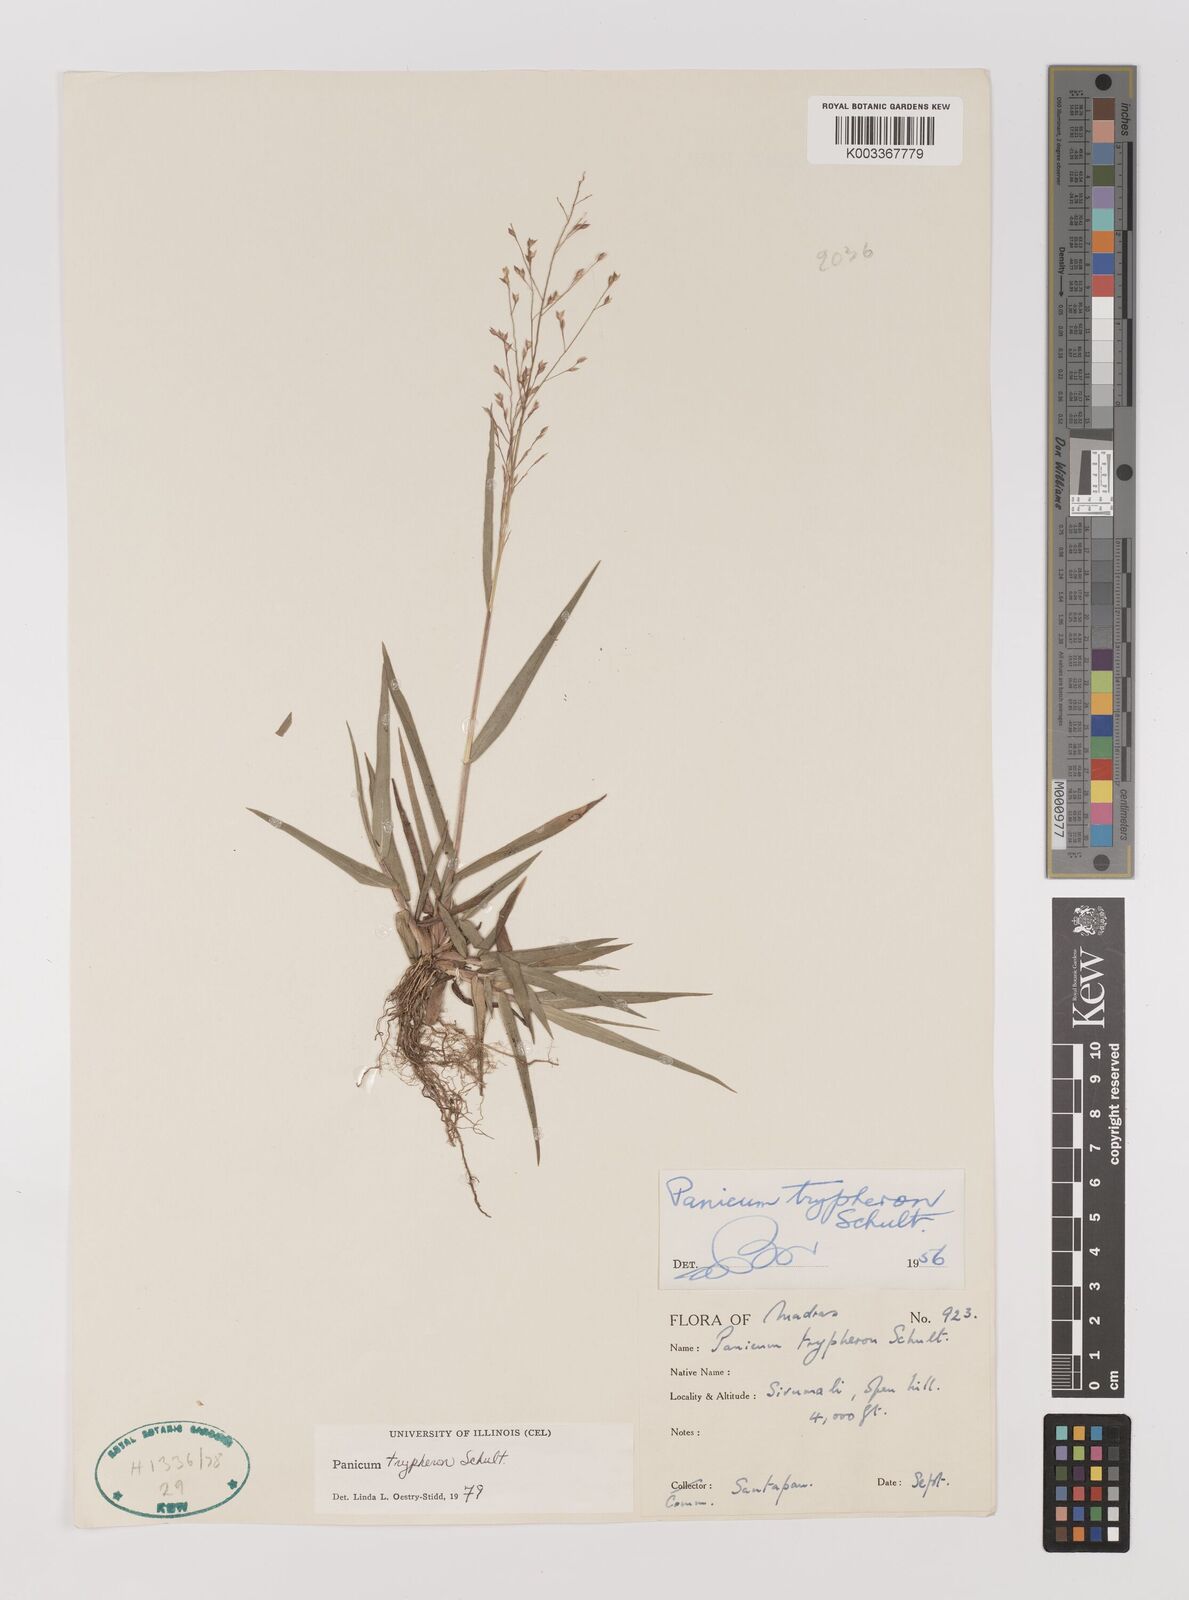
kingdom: Plantae
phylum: Tracheophyta
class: Liliopsida
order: Poales
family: Poaceae
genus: Panicum
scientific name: Panicum curviflorum
